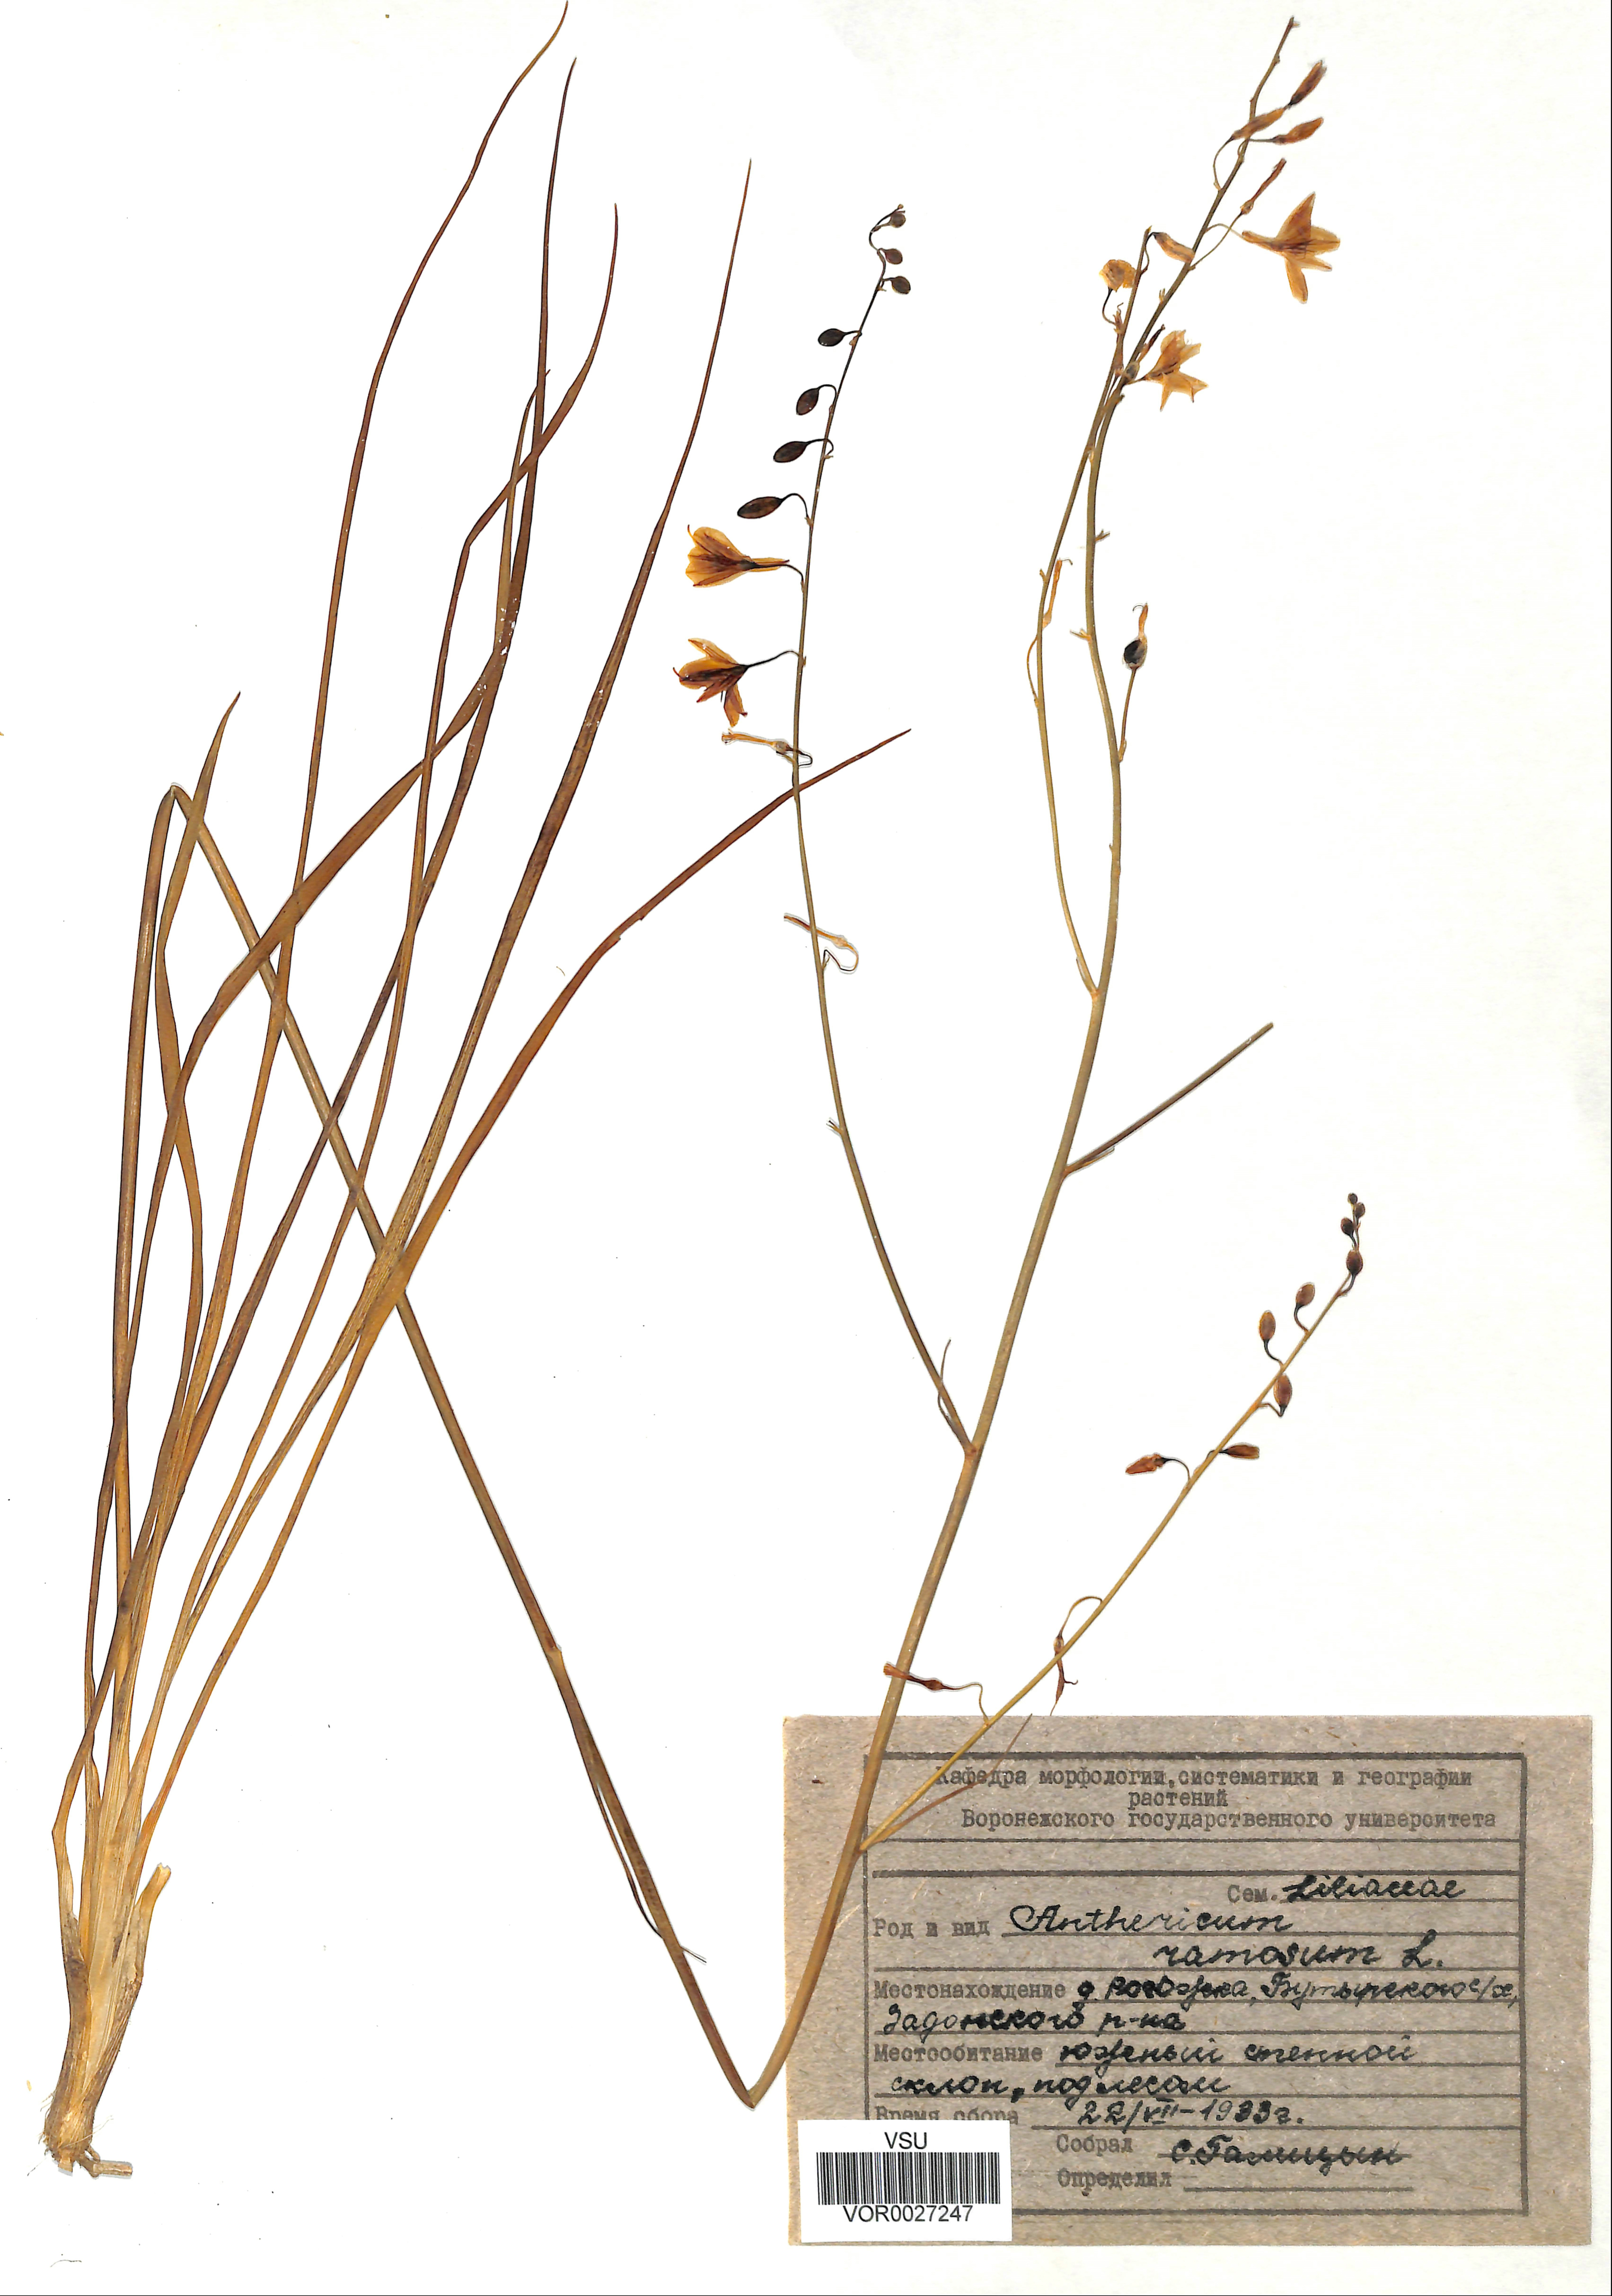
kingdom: Plantae
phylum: Tracheophyta
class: Liliopsida
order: Asparagales
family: Asparagaceae
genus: Anthericum
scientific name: Anthericum ramosum
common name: Branched st. bernard's-lily
